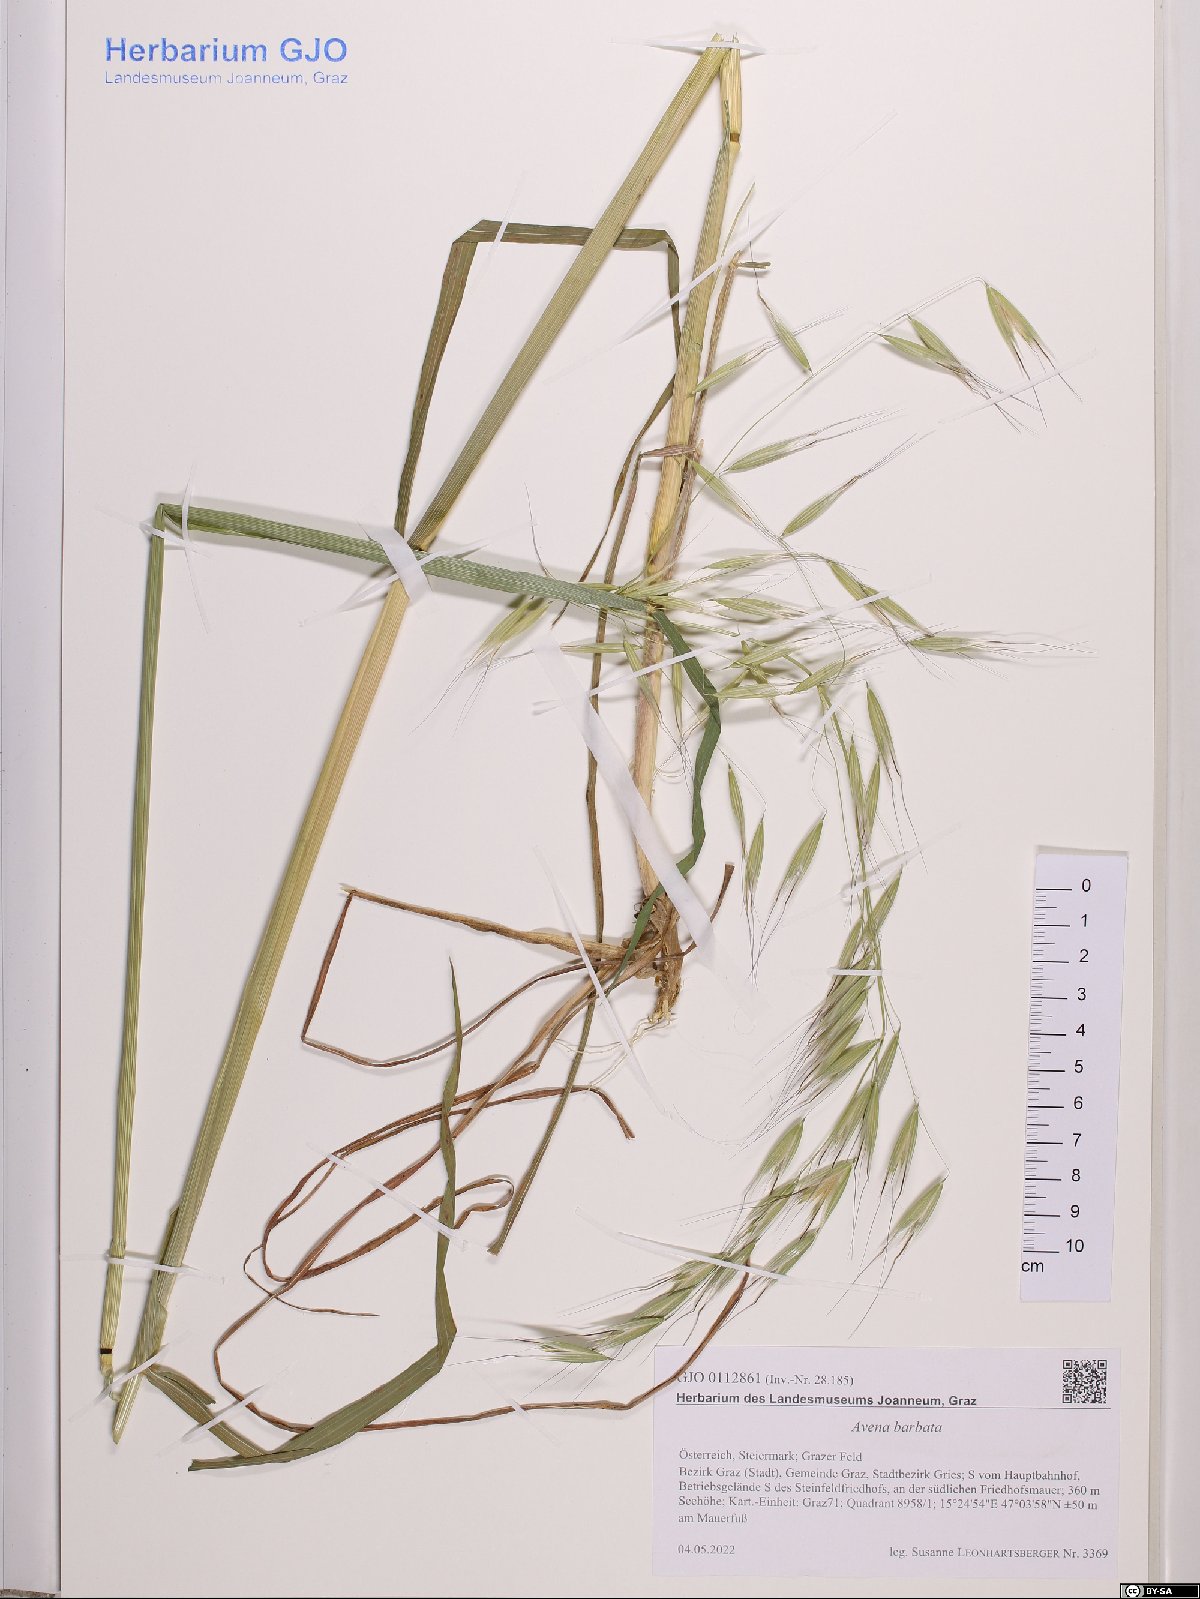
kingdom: Plantae
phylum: Tracheophyta
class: Liliopsida
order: Poales
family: Poaceae
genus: Avena
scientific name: Avena barbata
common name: Slender oat
